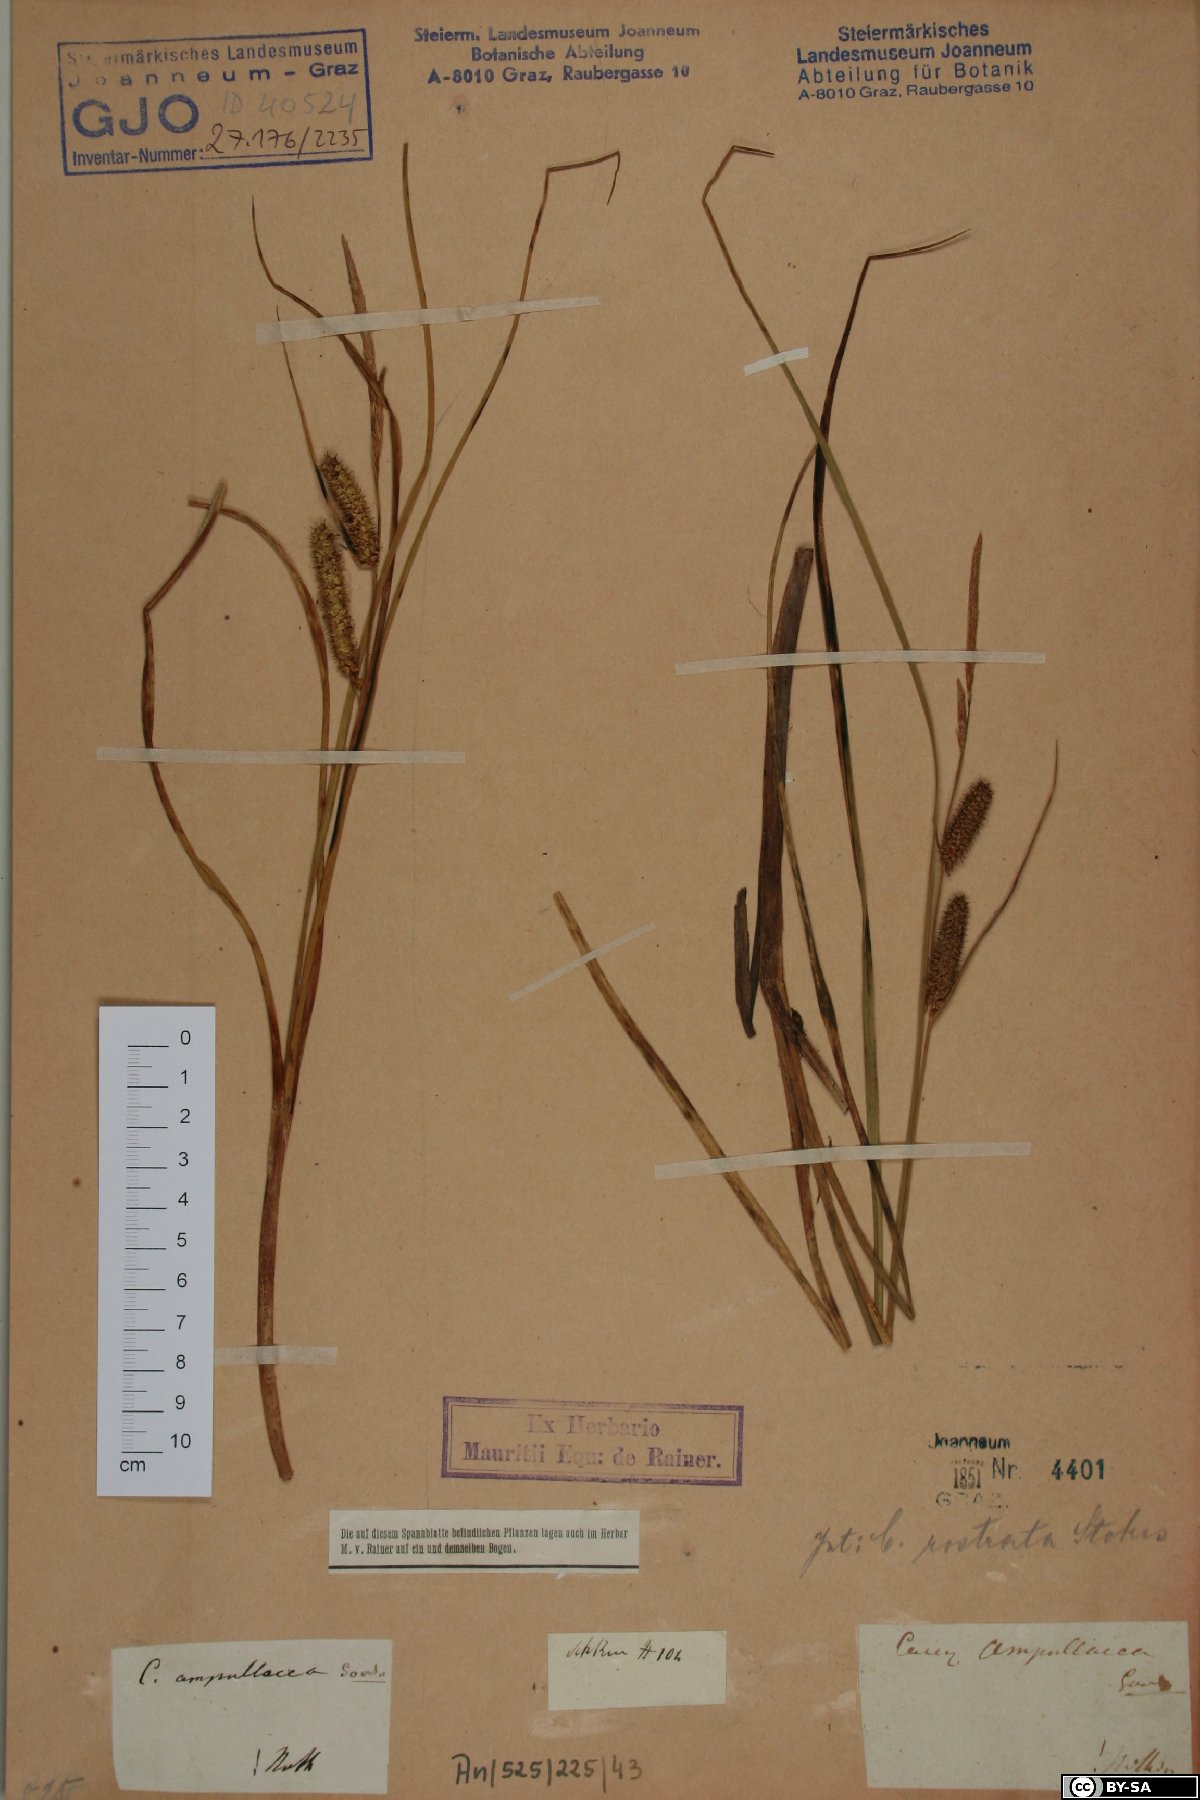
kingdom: Plantae
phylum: Tracheophyta
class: Liliopsida
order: Poales
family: Cyperaceae
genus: Carex
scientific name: Carex rostrata
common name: Bottle sedge
